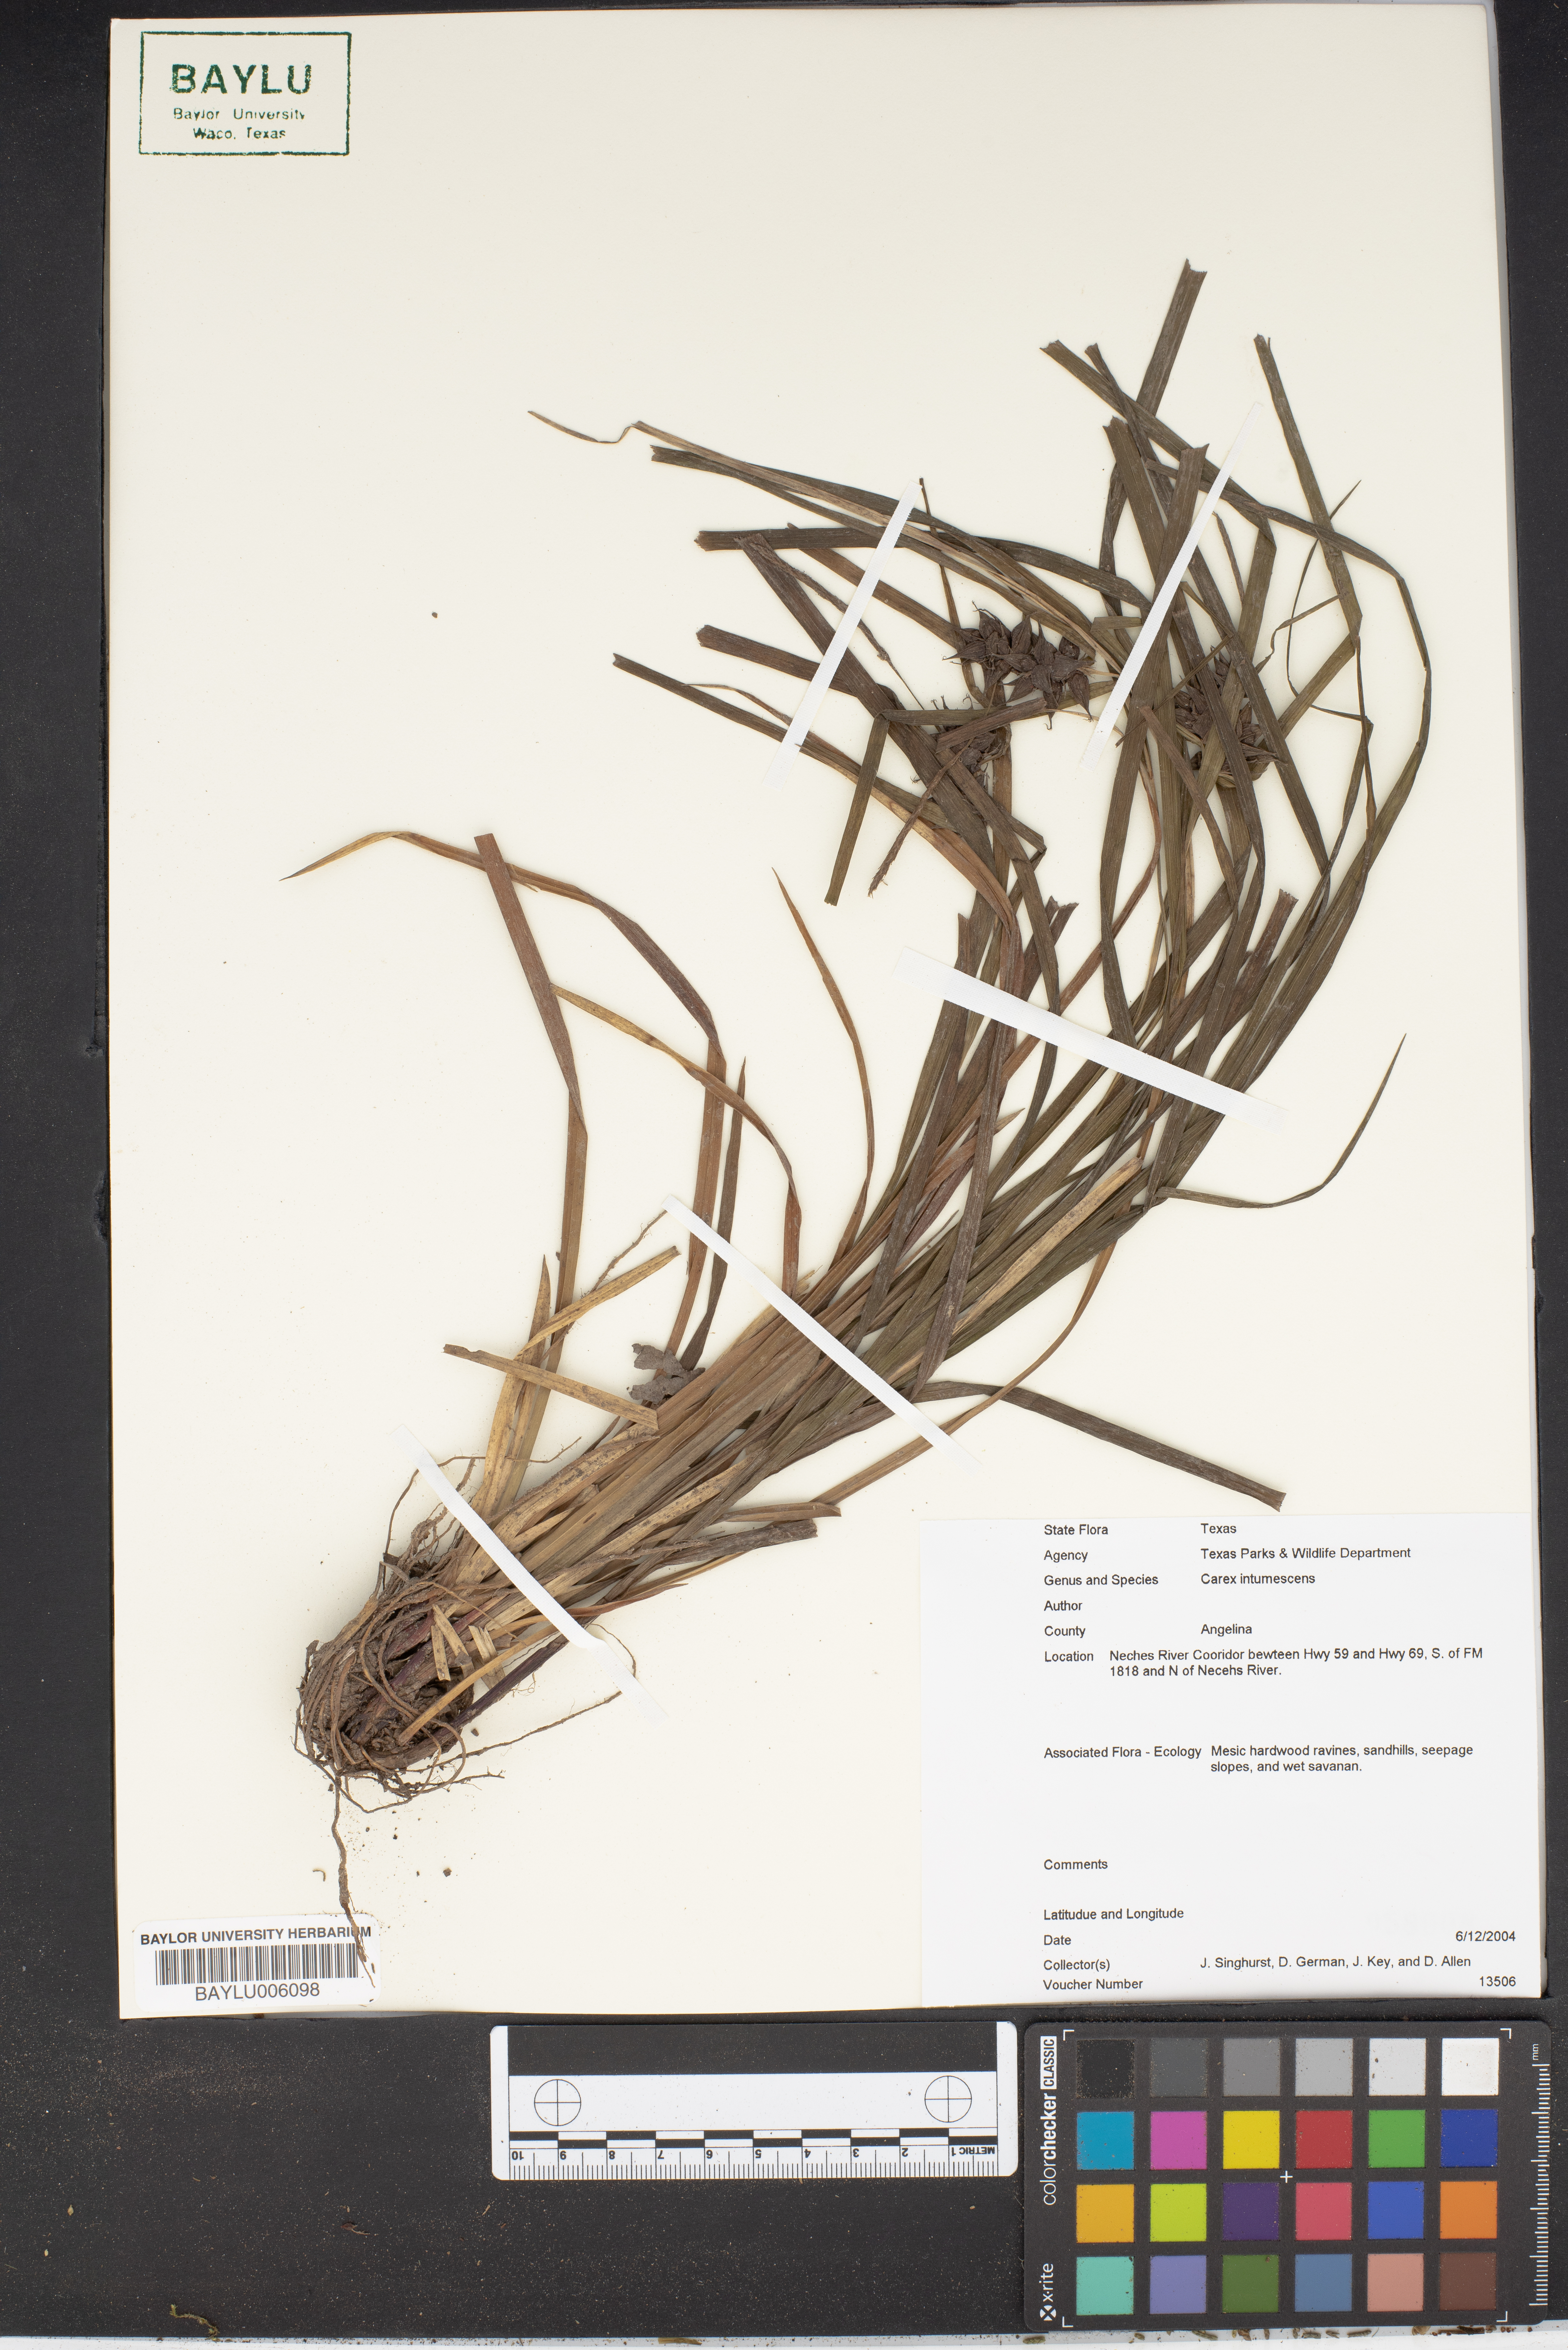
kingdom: Plantae
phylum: Tracheophyta
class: Liliopsida
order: Poales
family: Cyperaceae
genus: Carex
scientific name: Carex intumescens
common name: Greater bladder sedge
